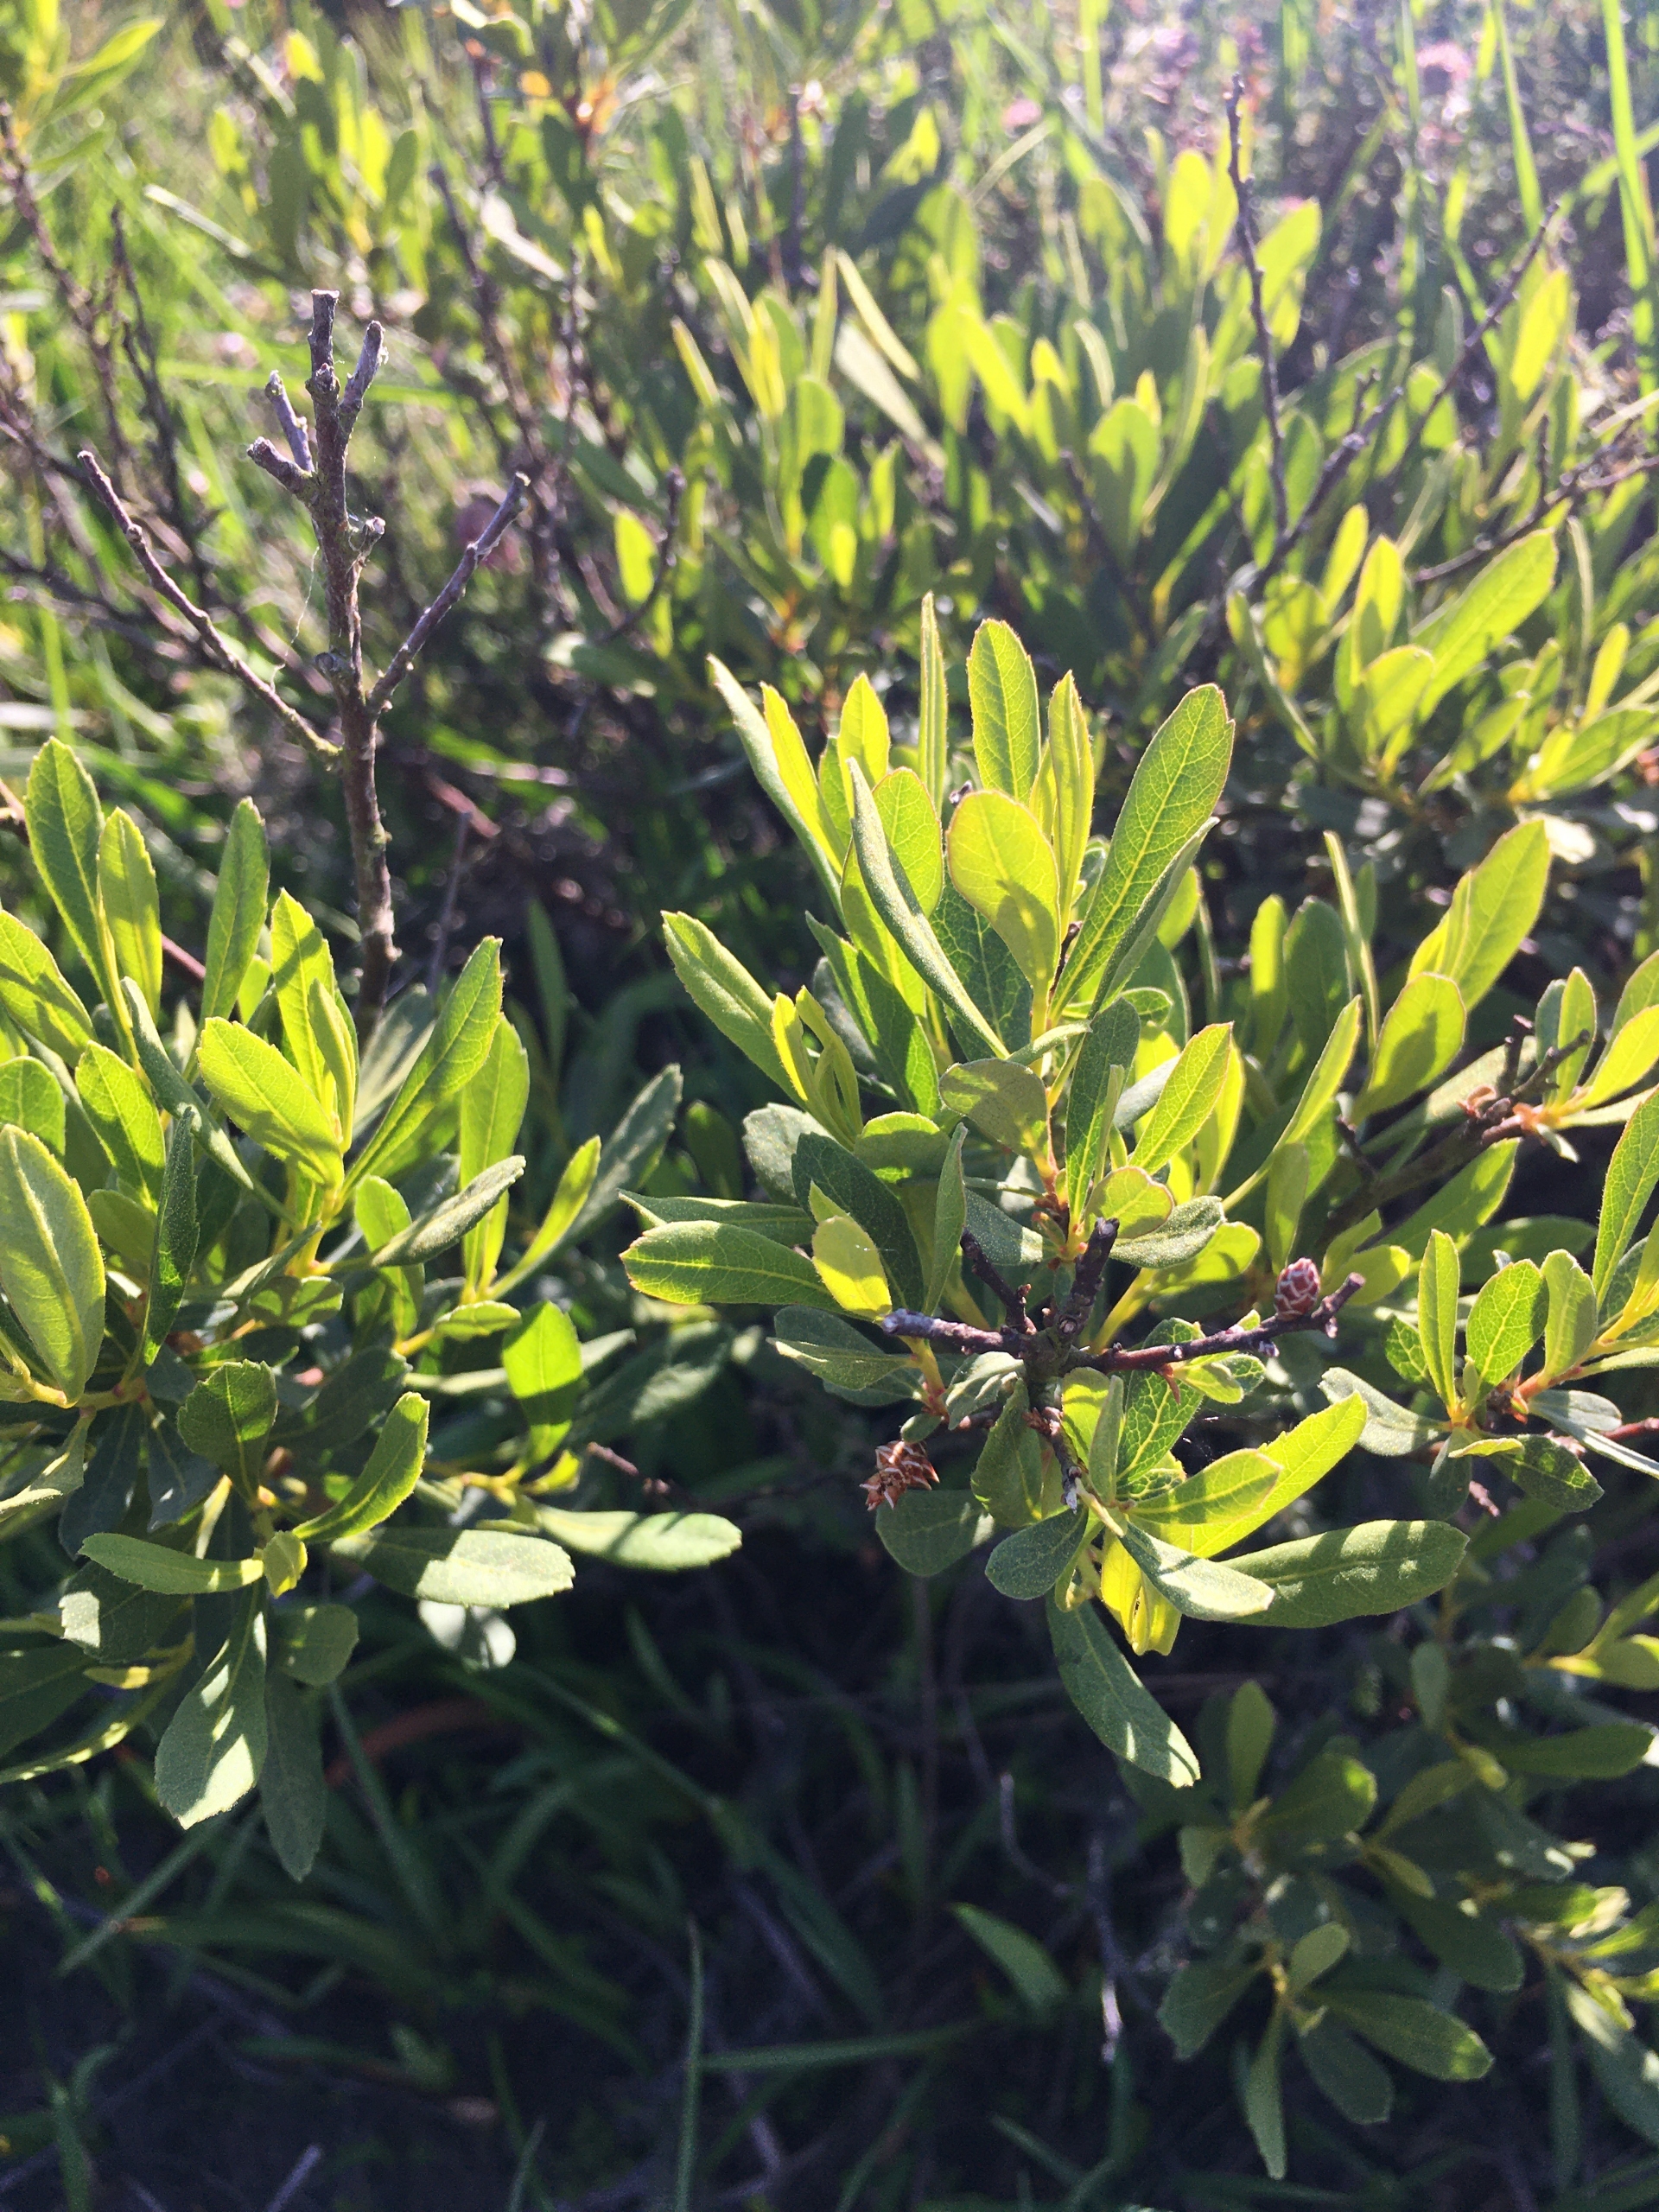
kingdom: Plantae
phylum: Tracheophyta
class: Magnoliopsida
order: Fagales
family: Myricaceae
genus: Myrica
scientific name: Myrica gale
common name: Pors
